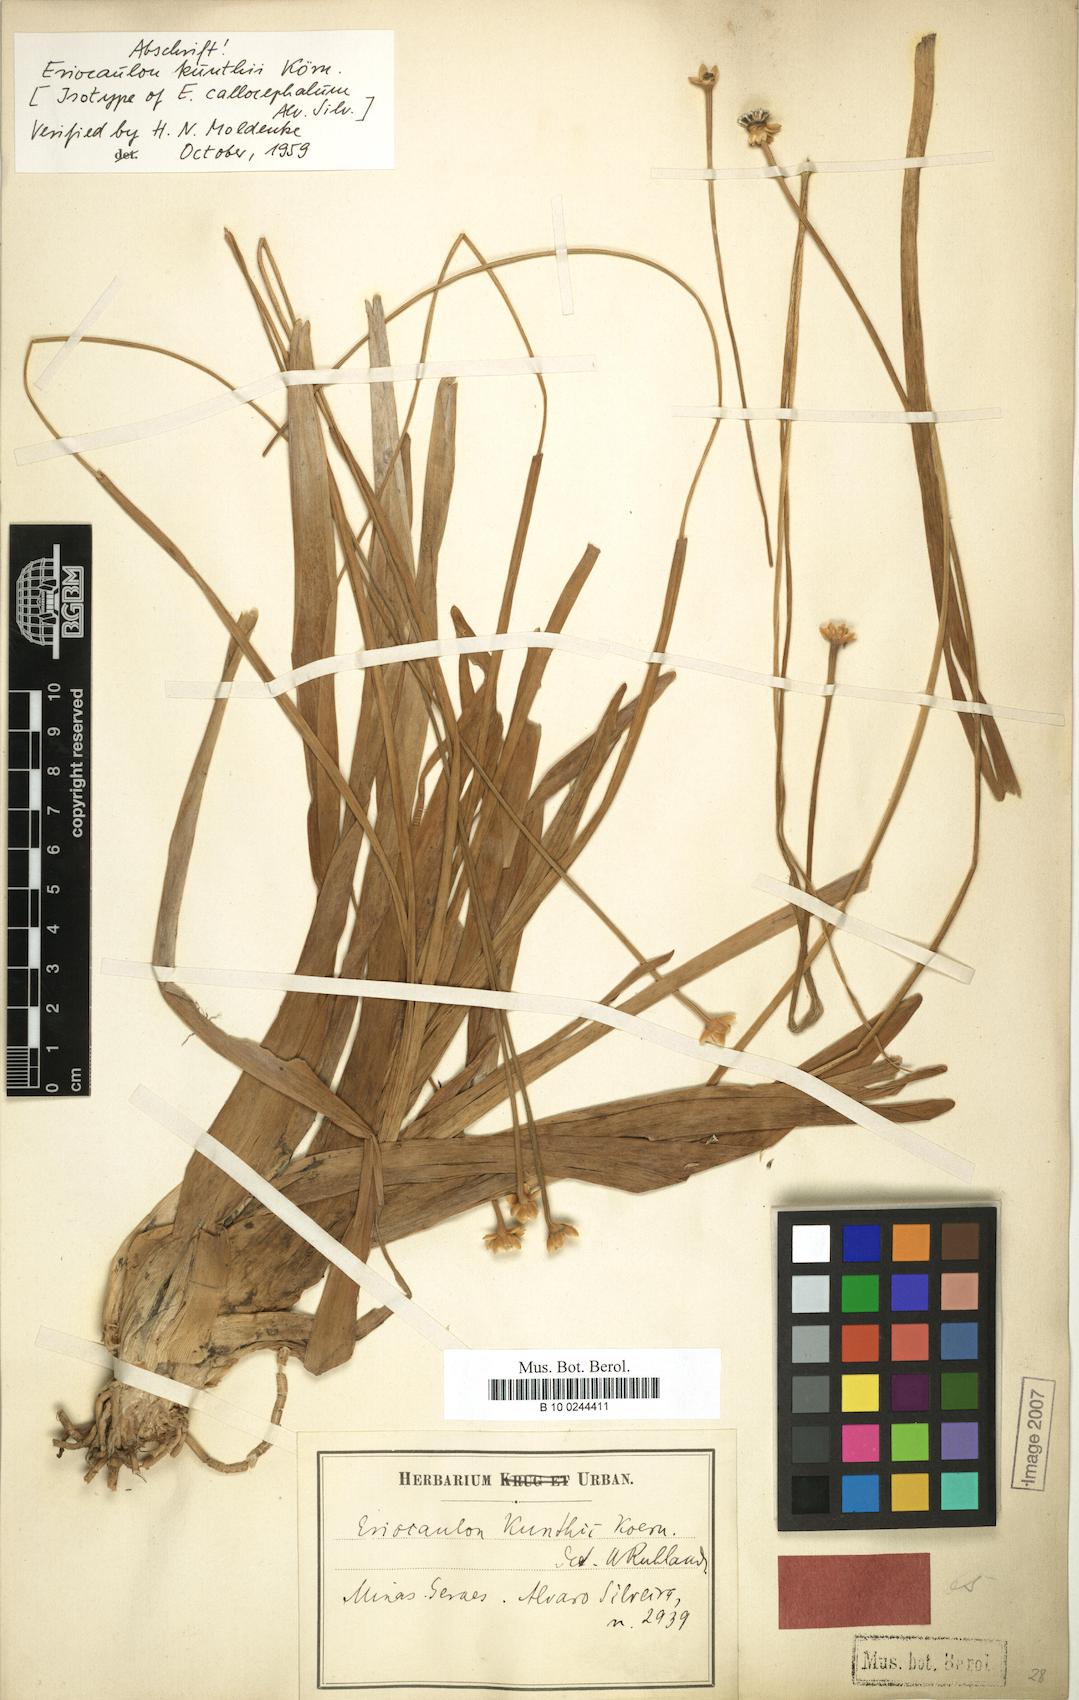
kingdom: Plantae
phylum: Tracheophyta
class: Liliopsida
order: Poales
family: Eriocaulaceae
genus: Eriocaulon
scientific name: Eriocaulon ligulatum
